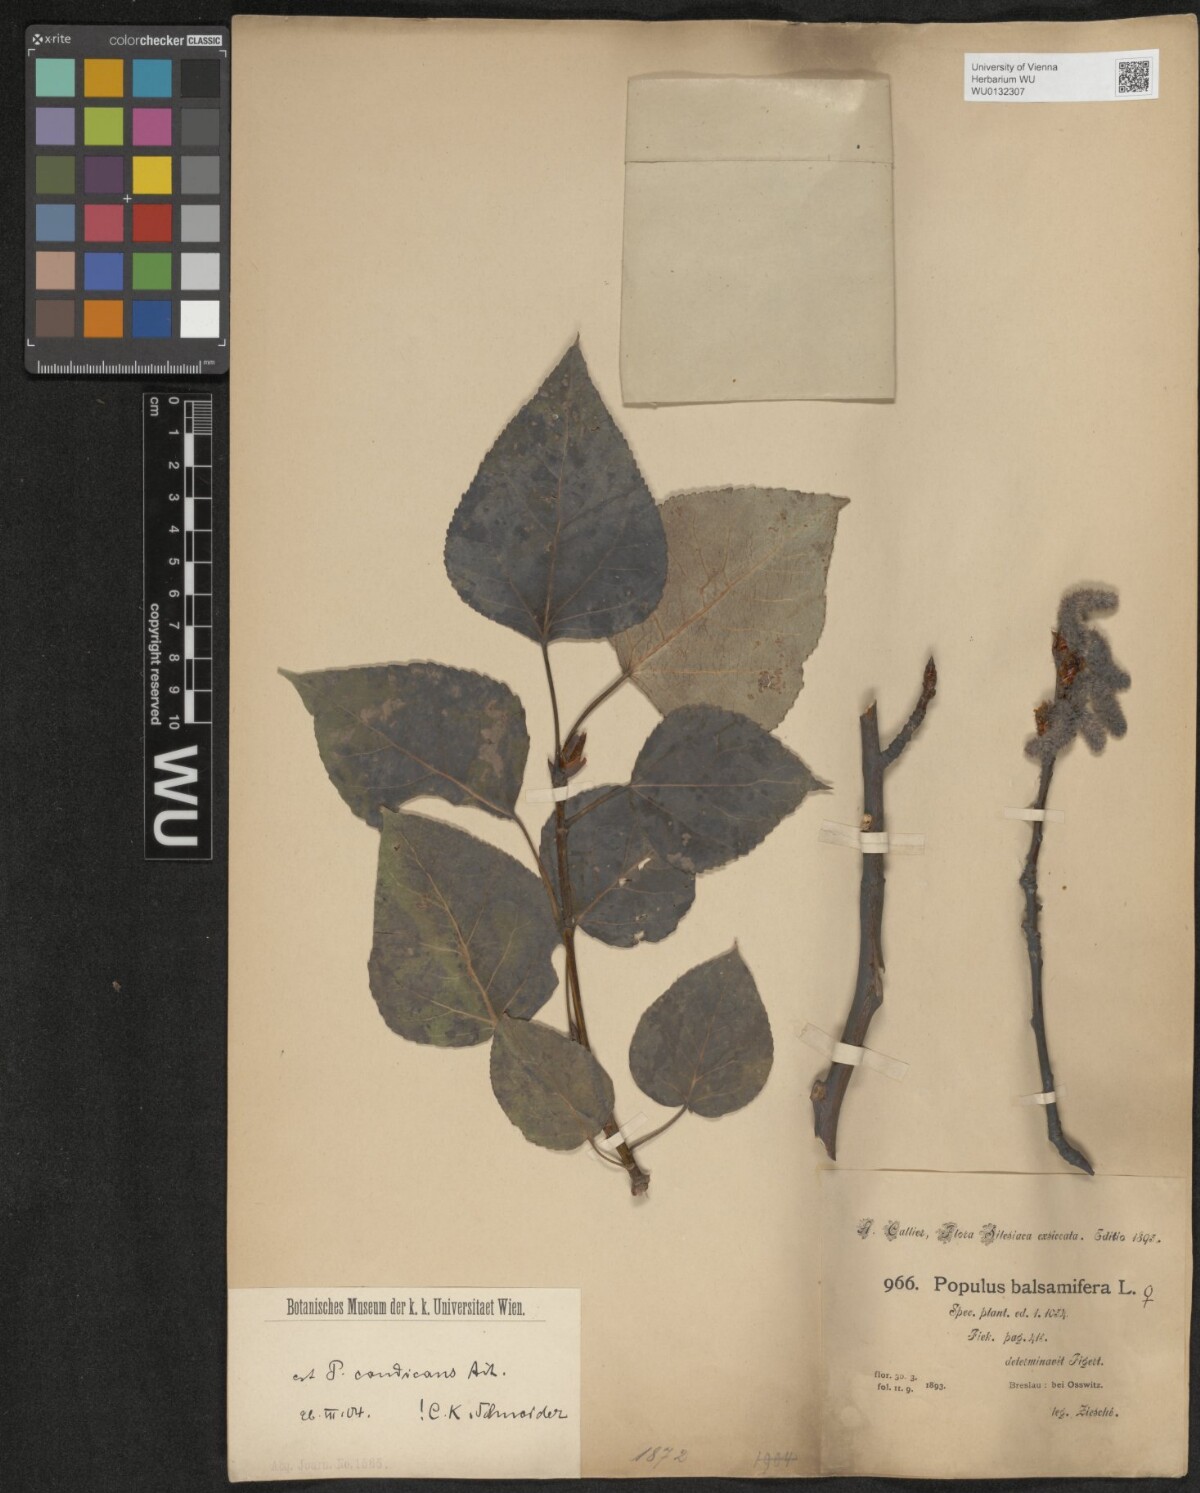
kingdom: Plantae
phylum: Tracheophyta
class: Magnoliopsida
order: Malpighiales
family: Salicaceae
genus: Populus
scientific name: Populus balsamifera
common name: Balsam poplar
